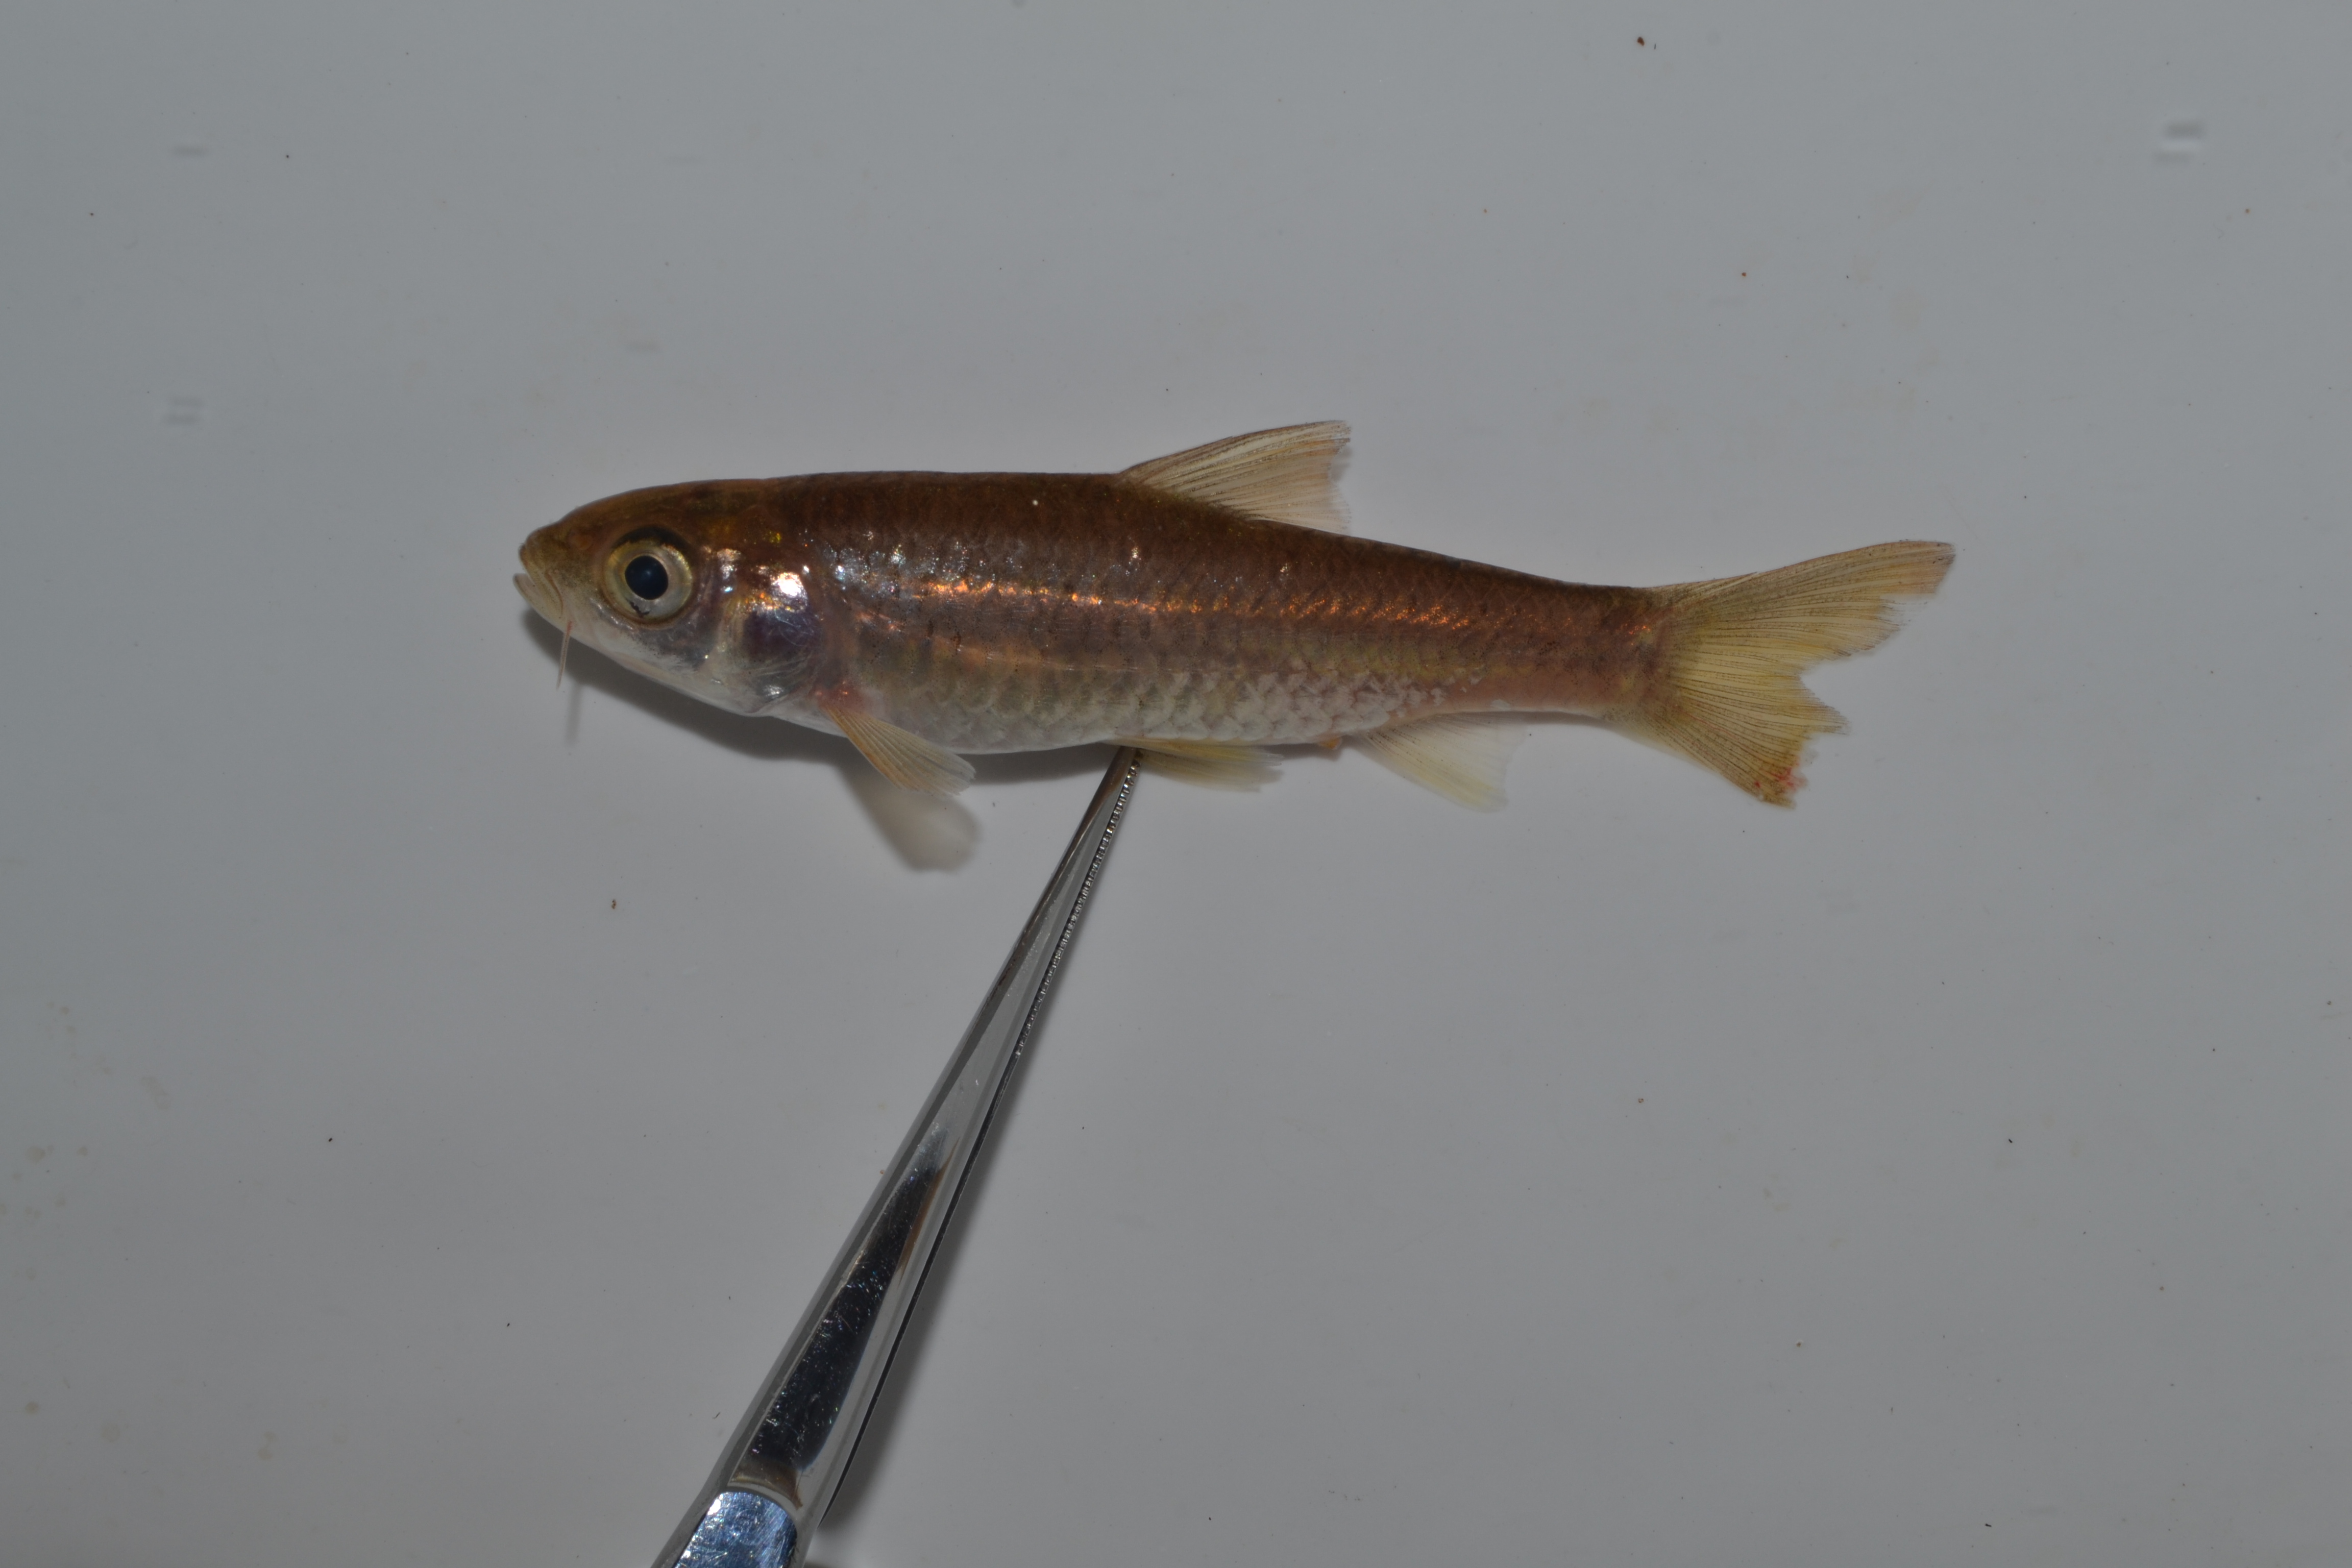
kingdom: Animalia
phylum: Chordata
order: Cypriniformes
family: Cyprinidae
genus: Enteromius
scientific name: Enteromius argenteus
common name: Rosefin barb
